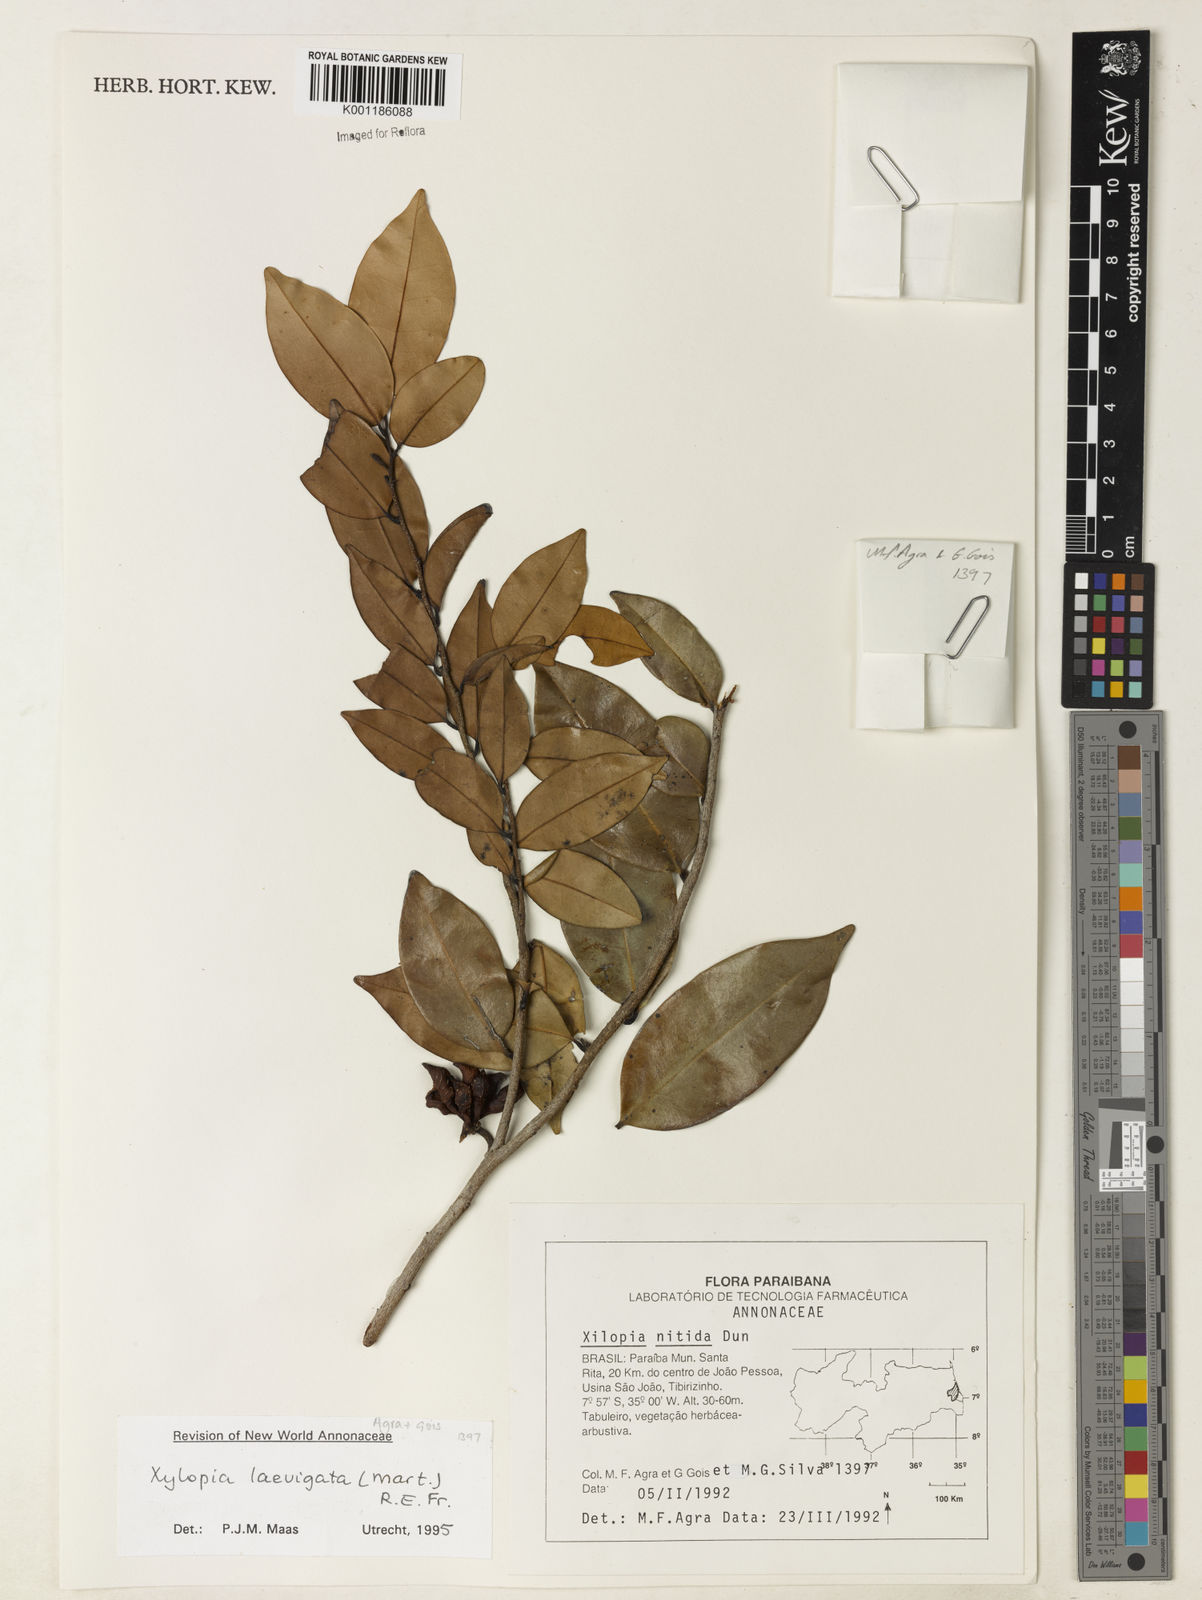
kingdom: Plantae
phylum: Tracheophyta
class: Magnoliopsida
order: Magnoliales
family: Annonaceae
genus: Xylopia
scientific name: Xylopia laevigata
